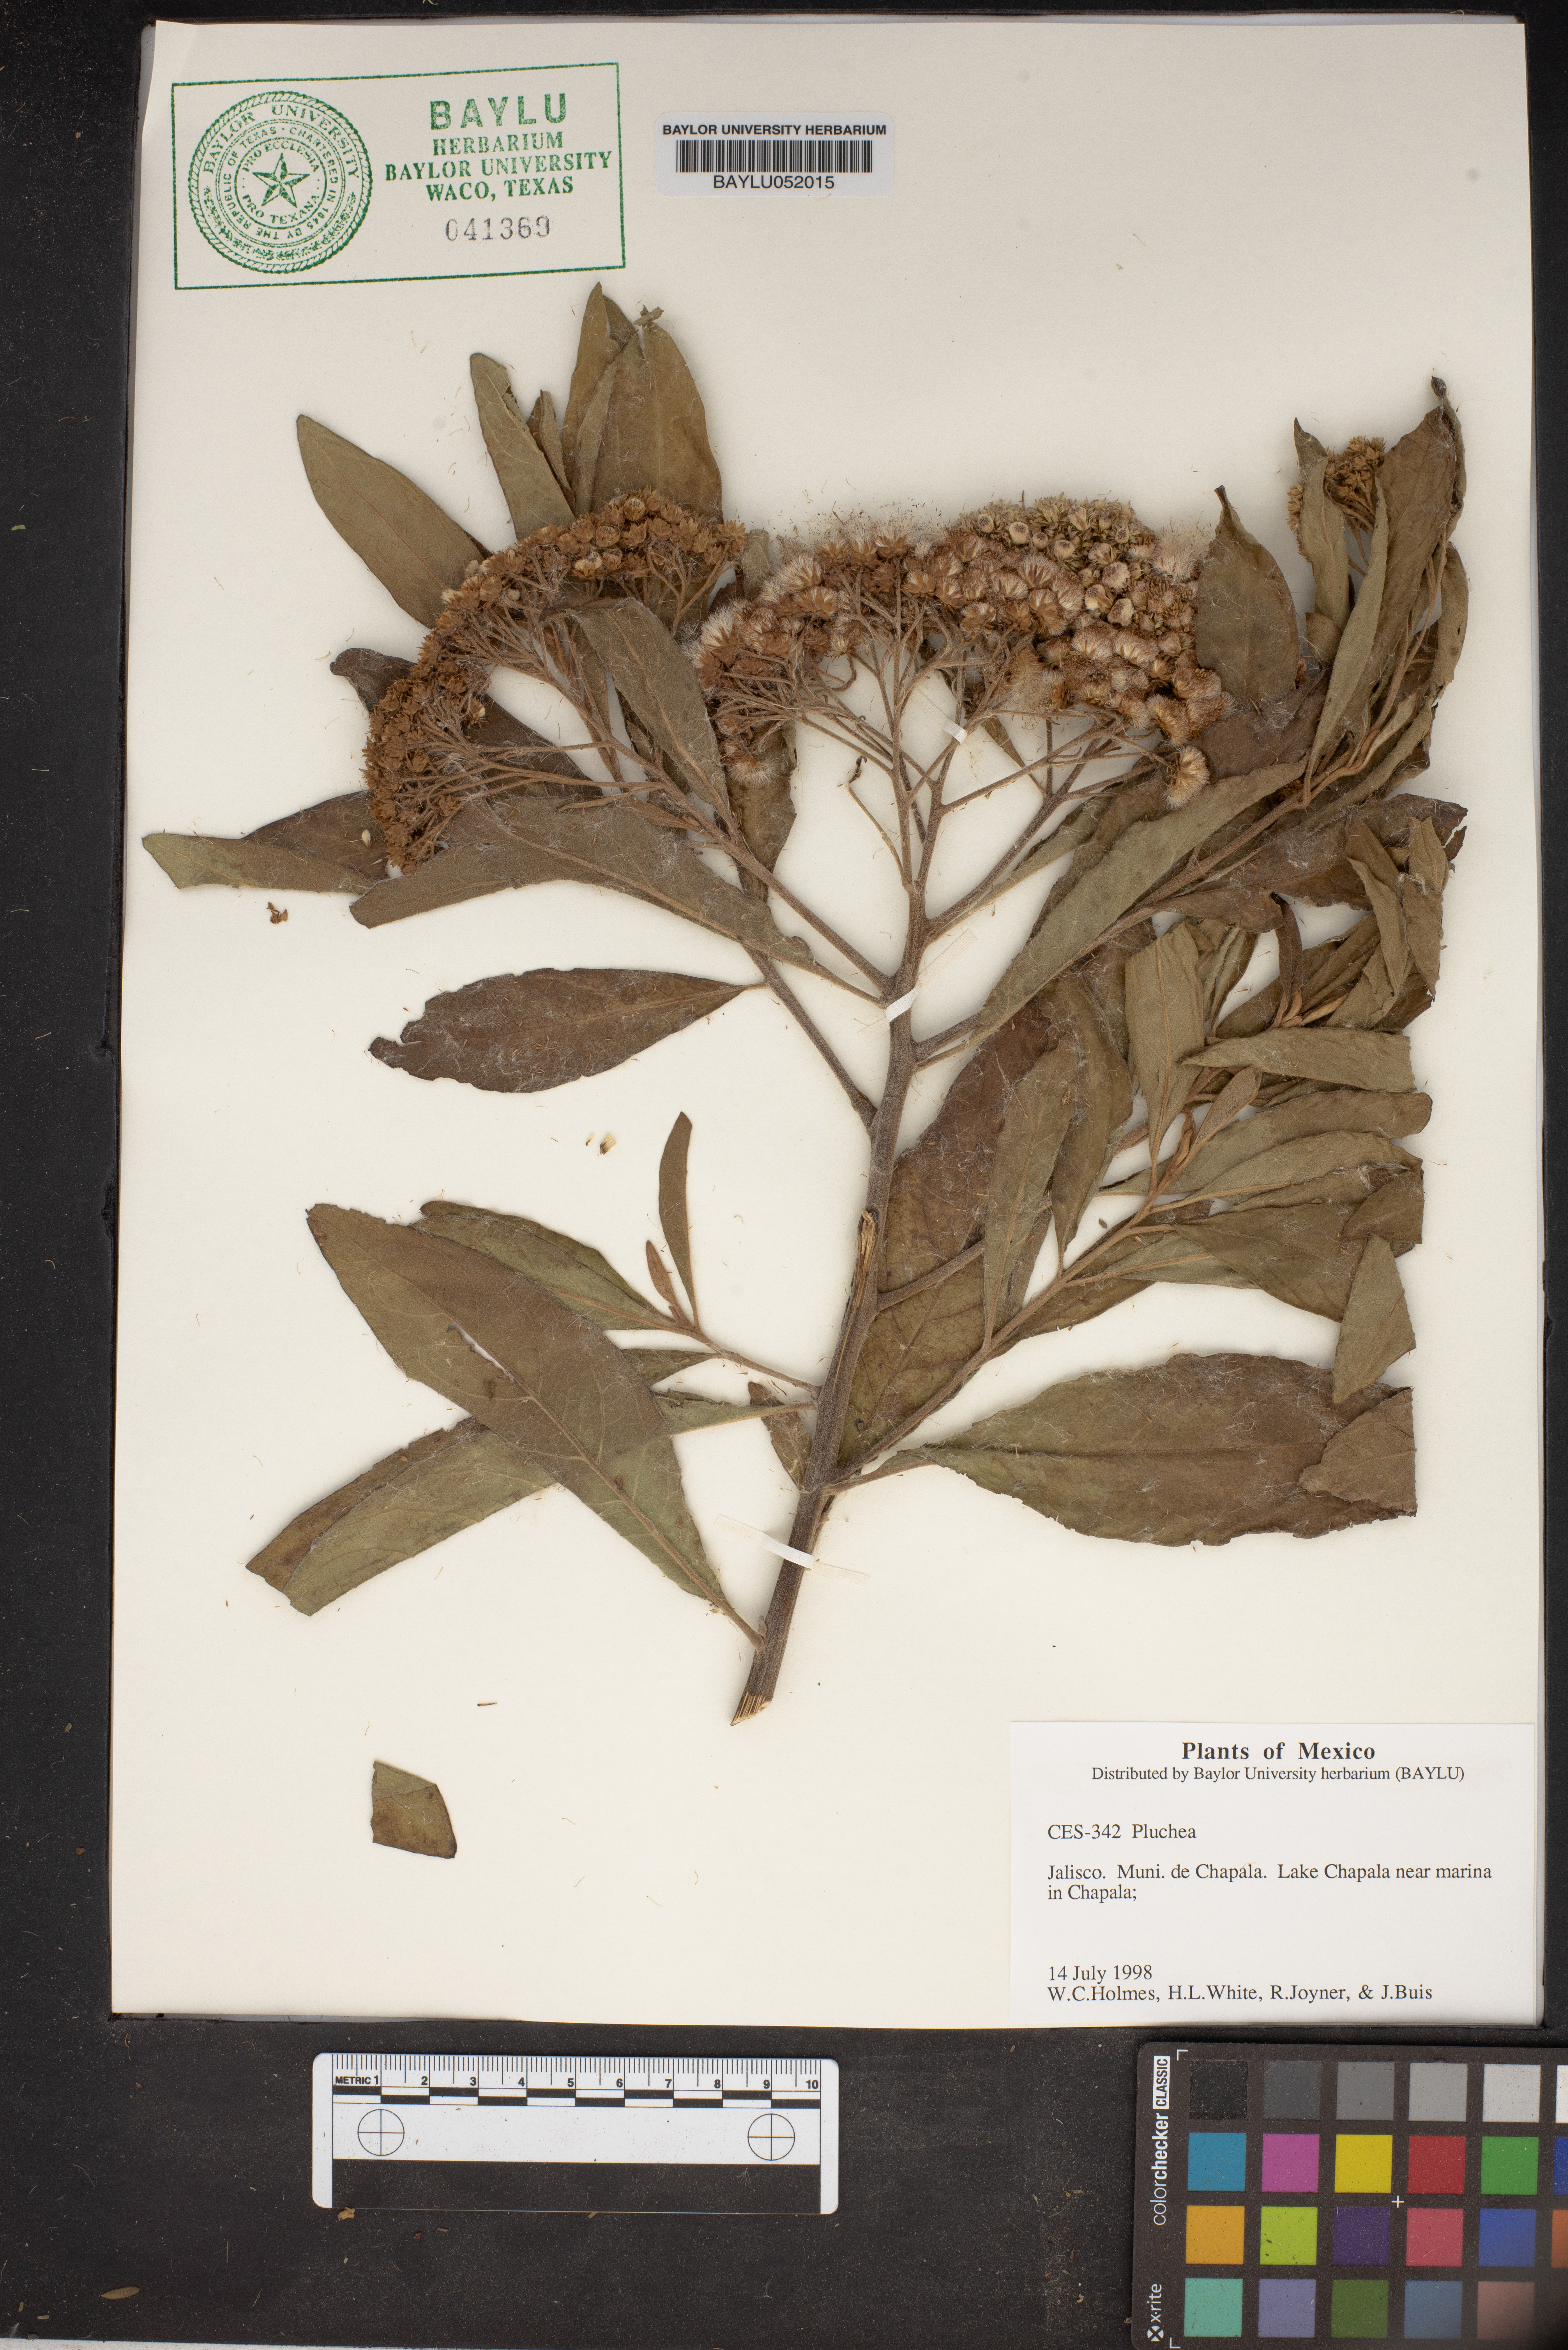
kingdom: Plantae
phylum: Tracheophyta
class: Magnoliopsida
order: Asterales
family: Asteraceae
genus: Pluchea
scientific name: Pluchea
